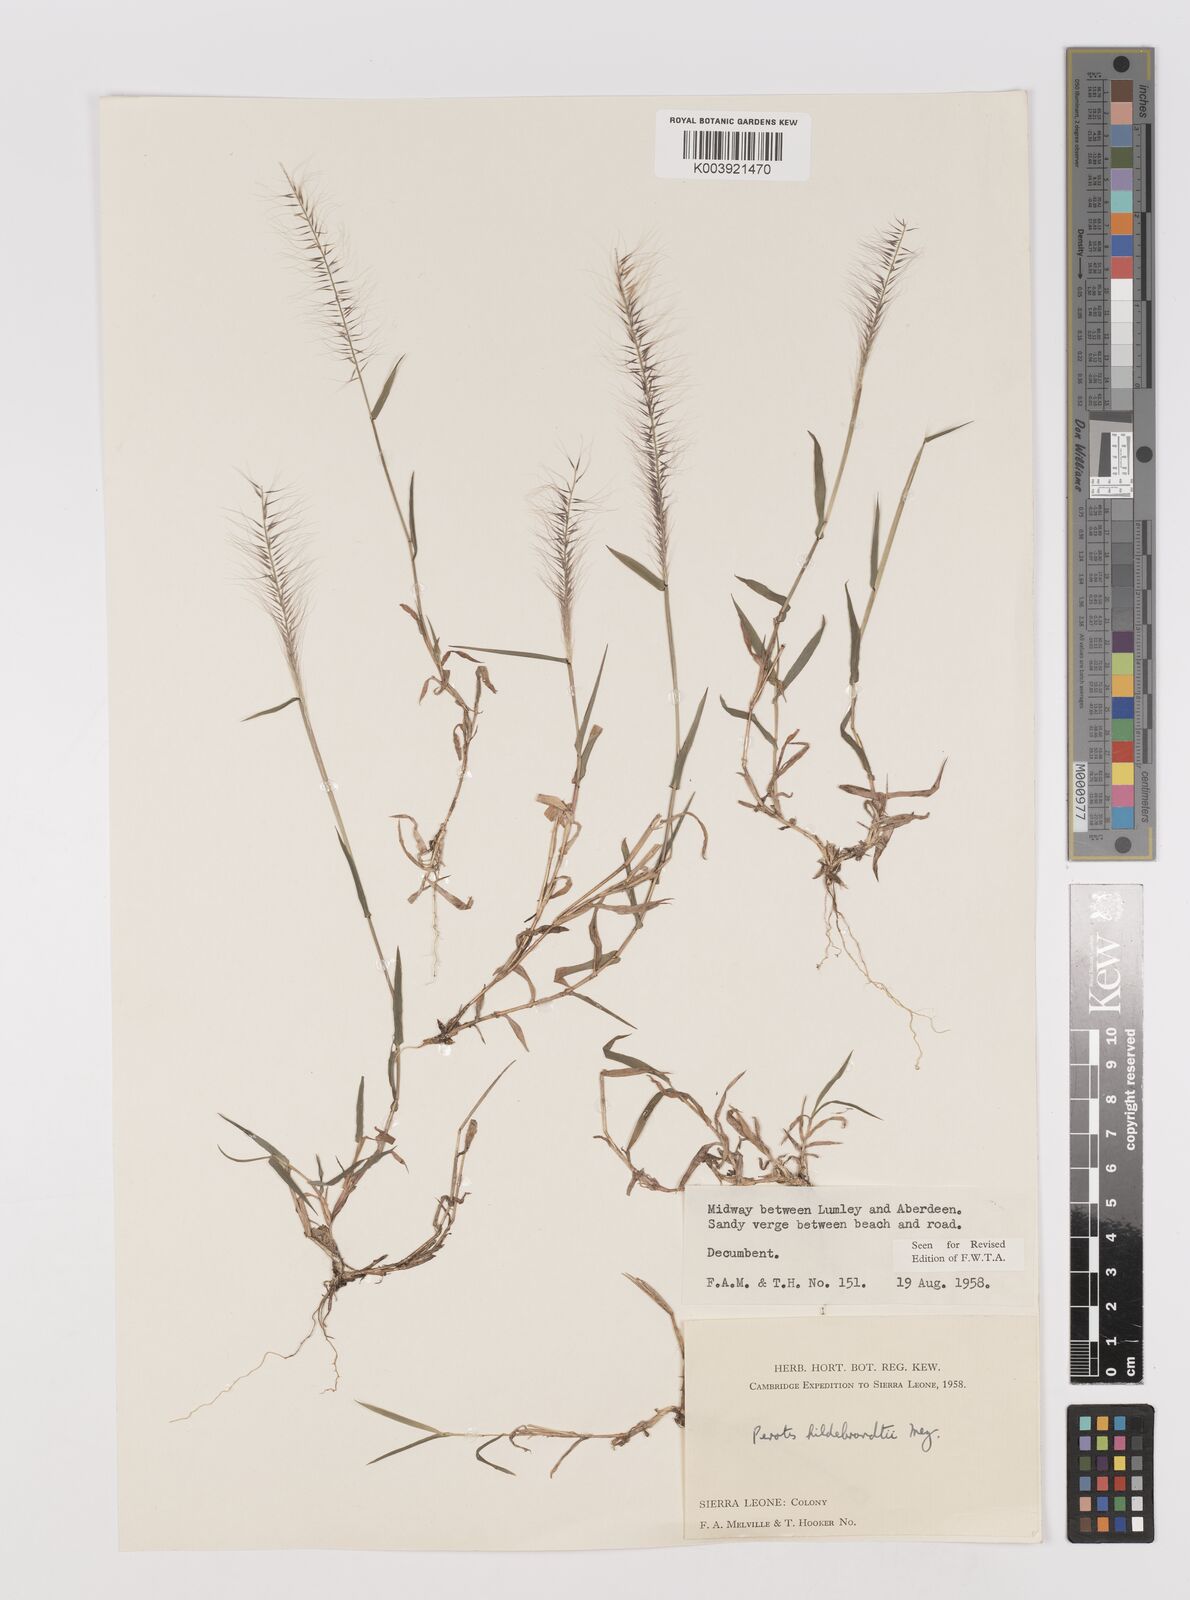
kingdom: Plantae
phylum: Tracheophyta
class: Liliopsida
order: Poales
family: Poaceae
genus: Perotis
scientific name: Perotis hildebrandtii
